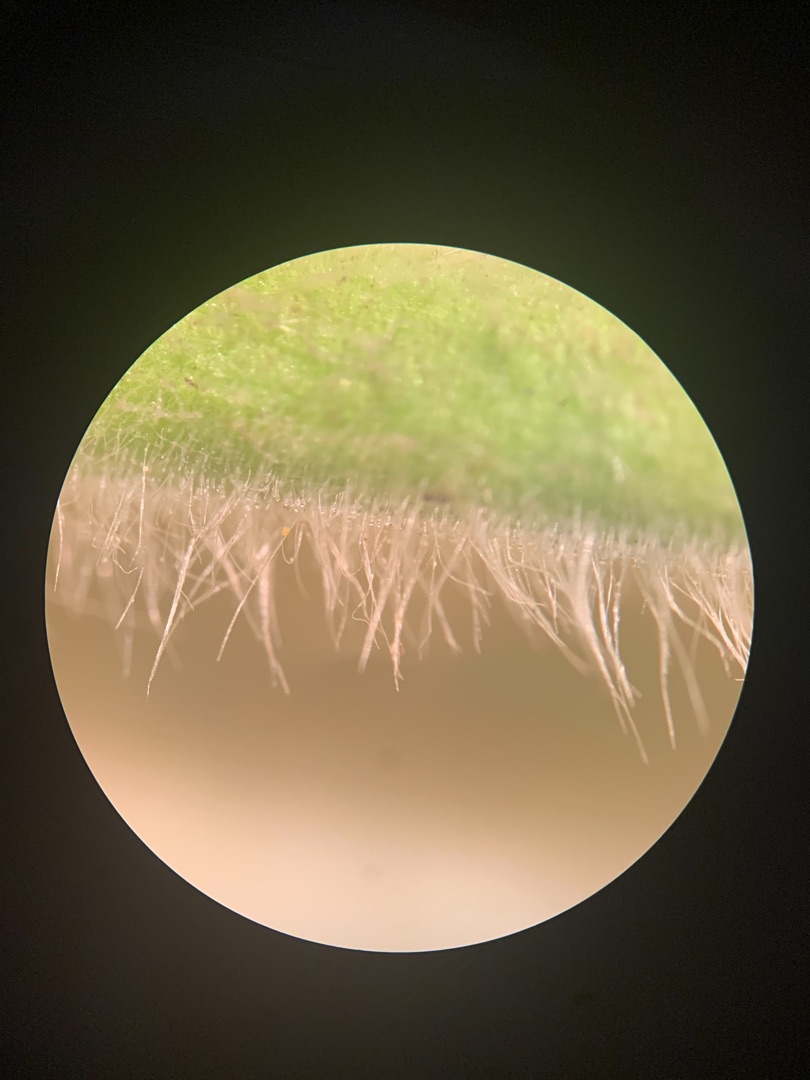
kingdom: Plantae
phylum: Tracheophyta
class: Magnoliopsida
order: Myrtales
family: Onagraceae
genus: Epilobium
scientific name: Epilobium hirsutum
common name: Lådden dueurt
